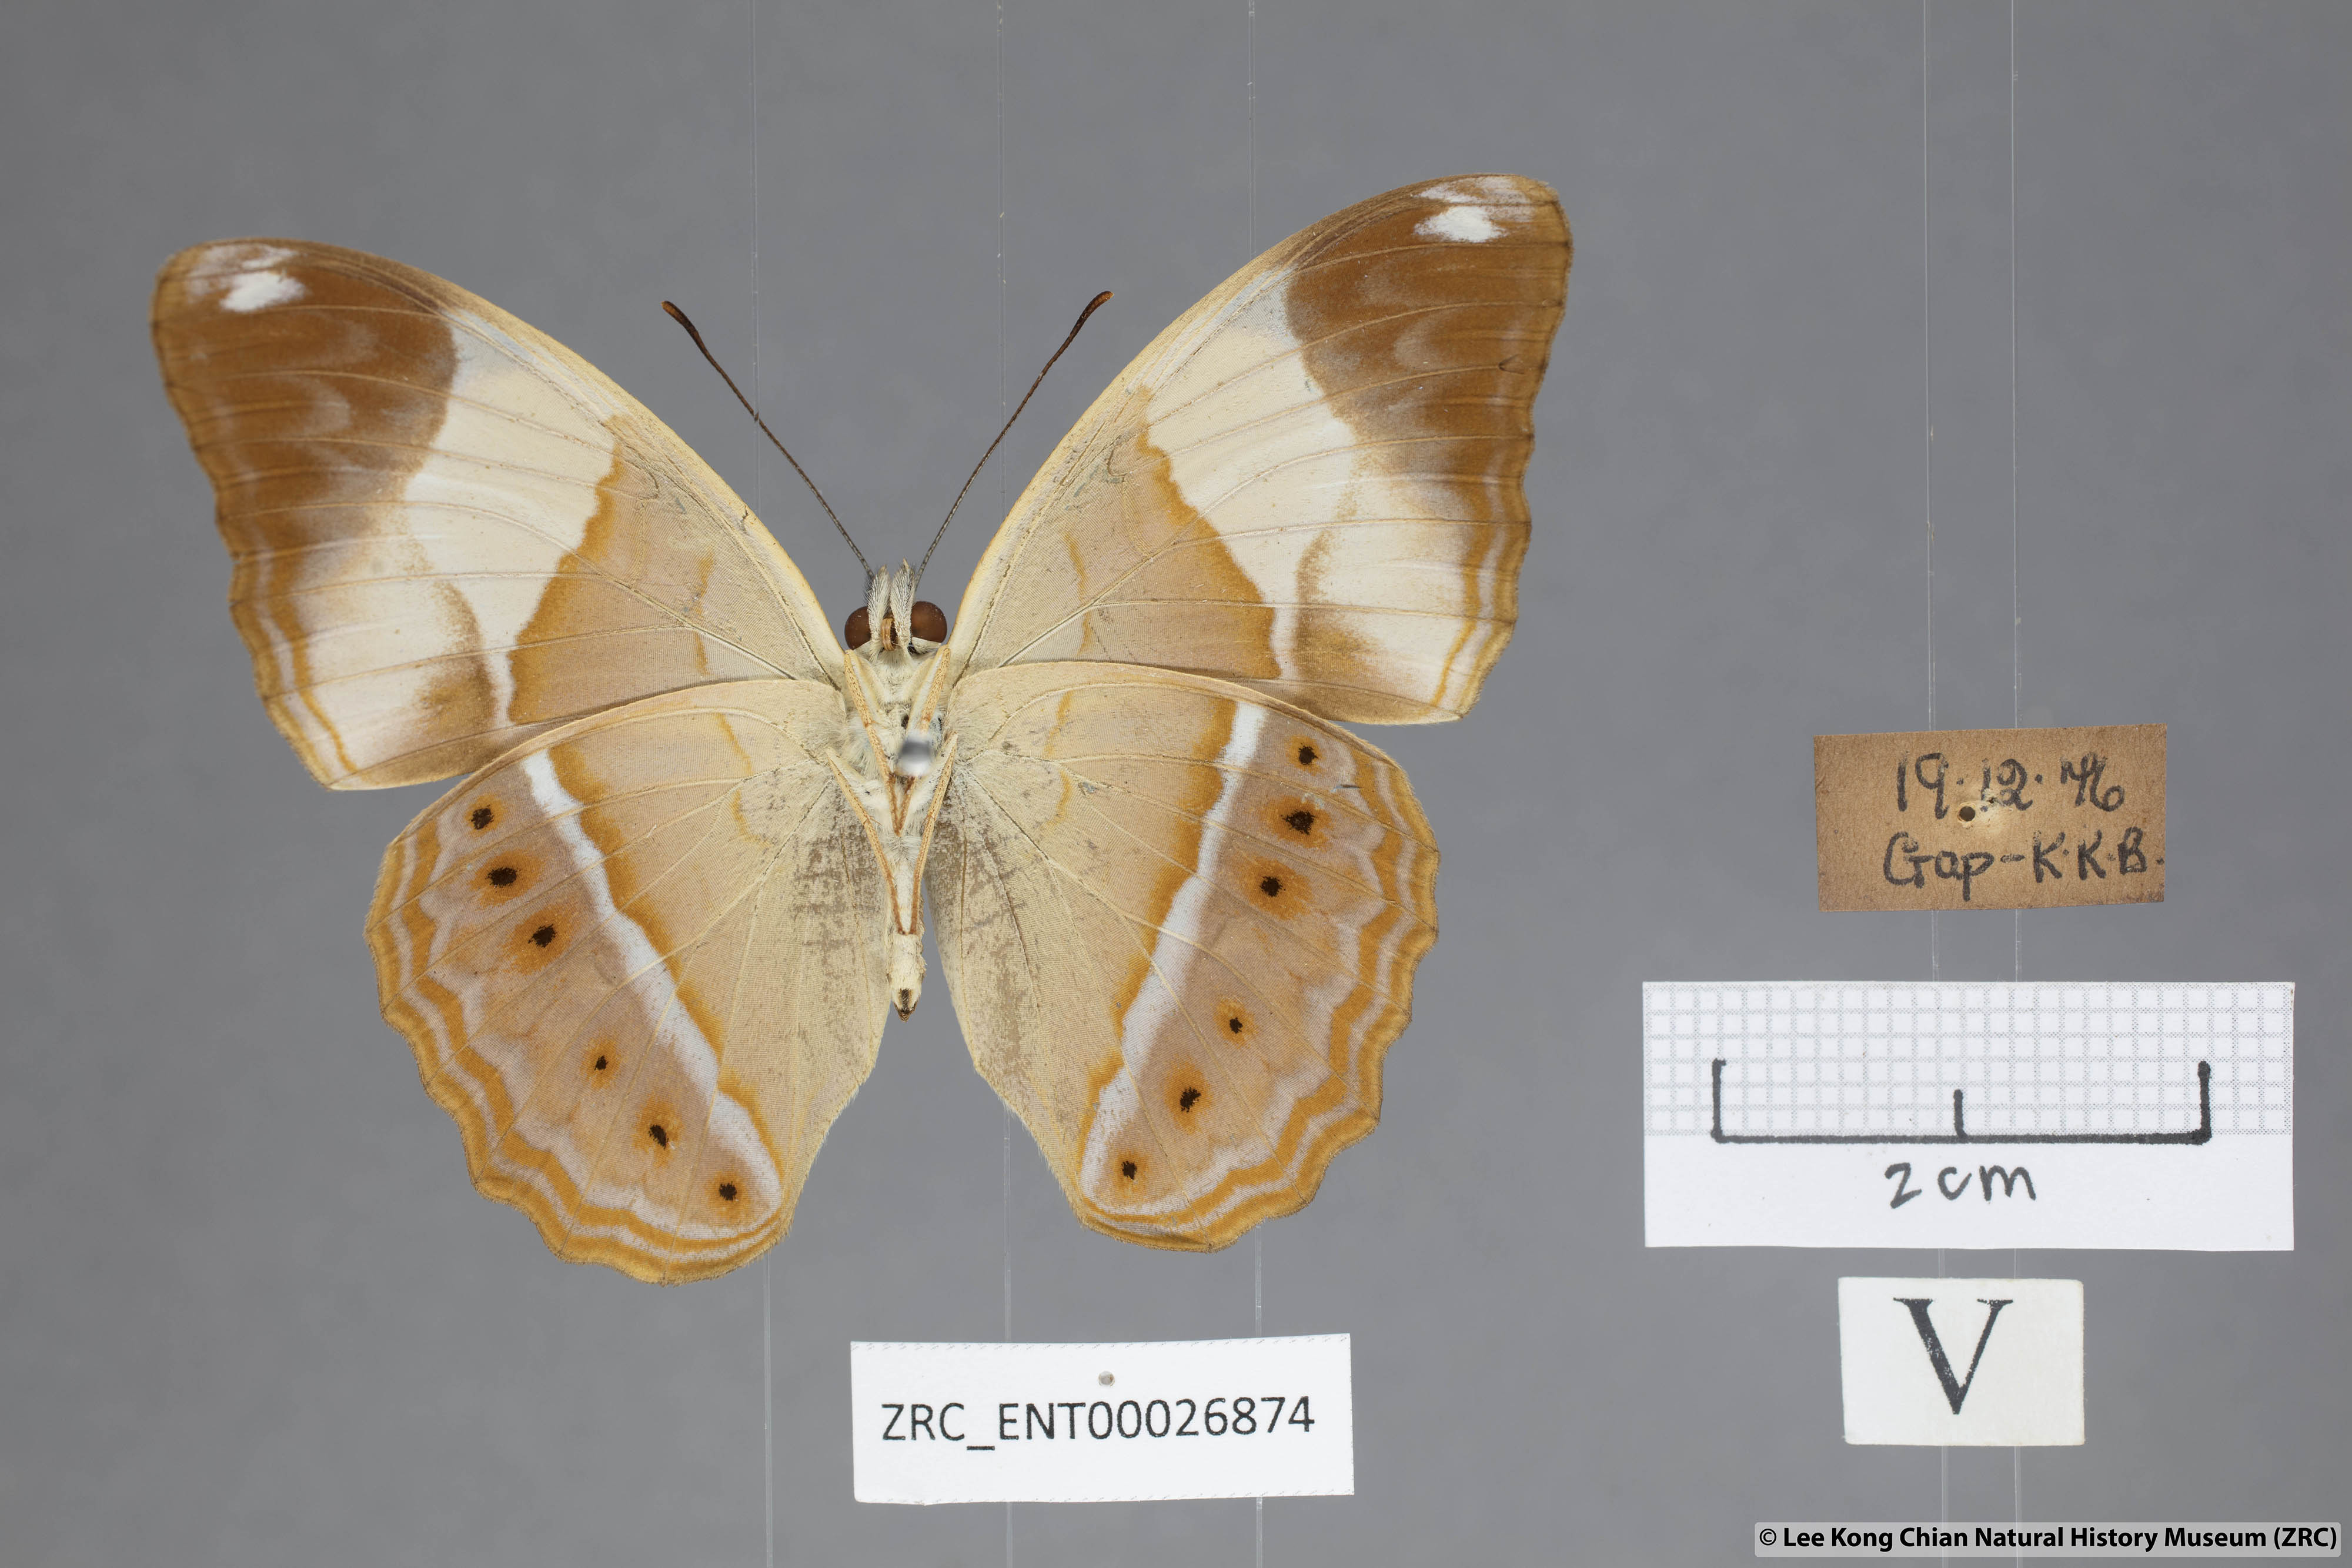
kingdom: Animalia
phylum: Arthropoda
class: Insecta
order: Lepidoptera
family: Nymphalidae
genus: Cirrochroa
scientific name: Cirrochroa orissa
